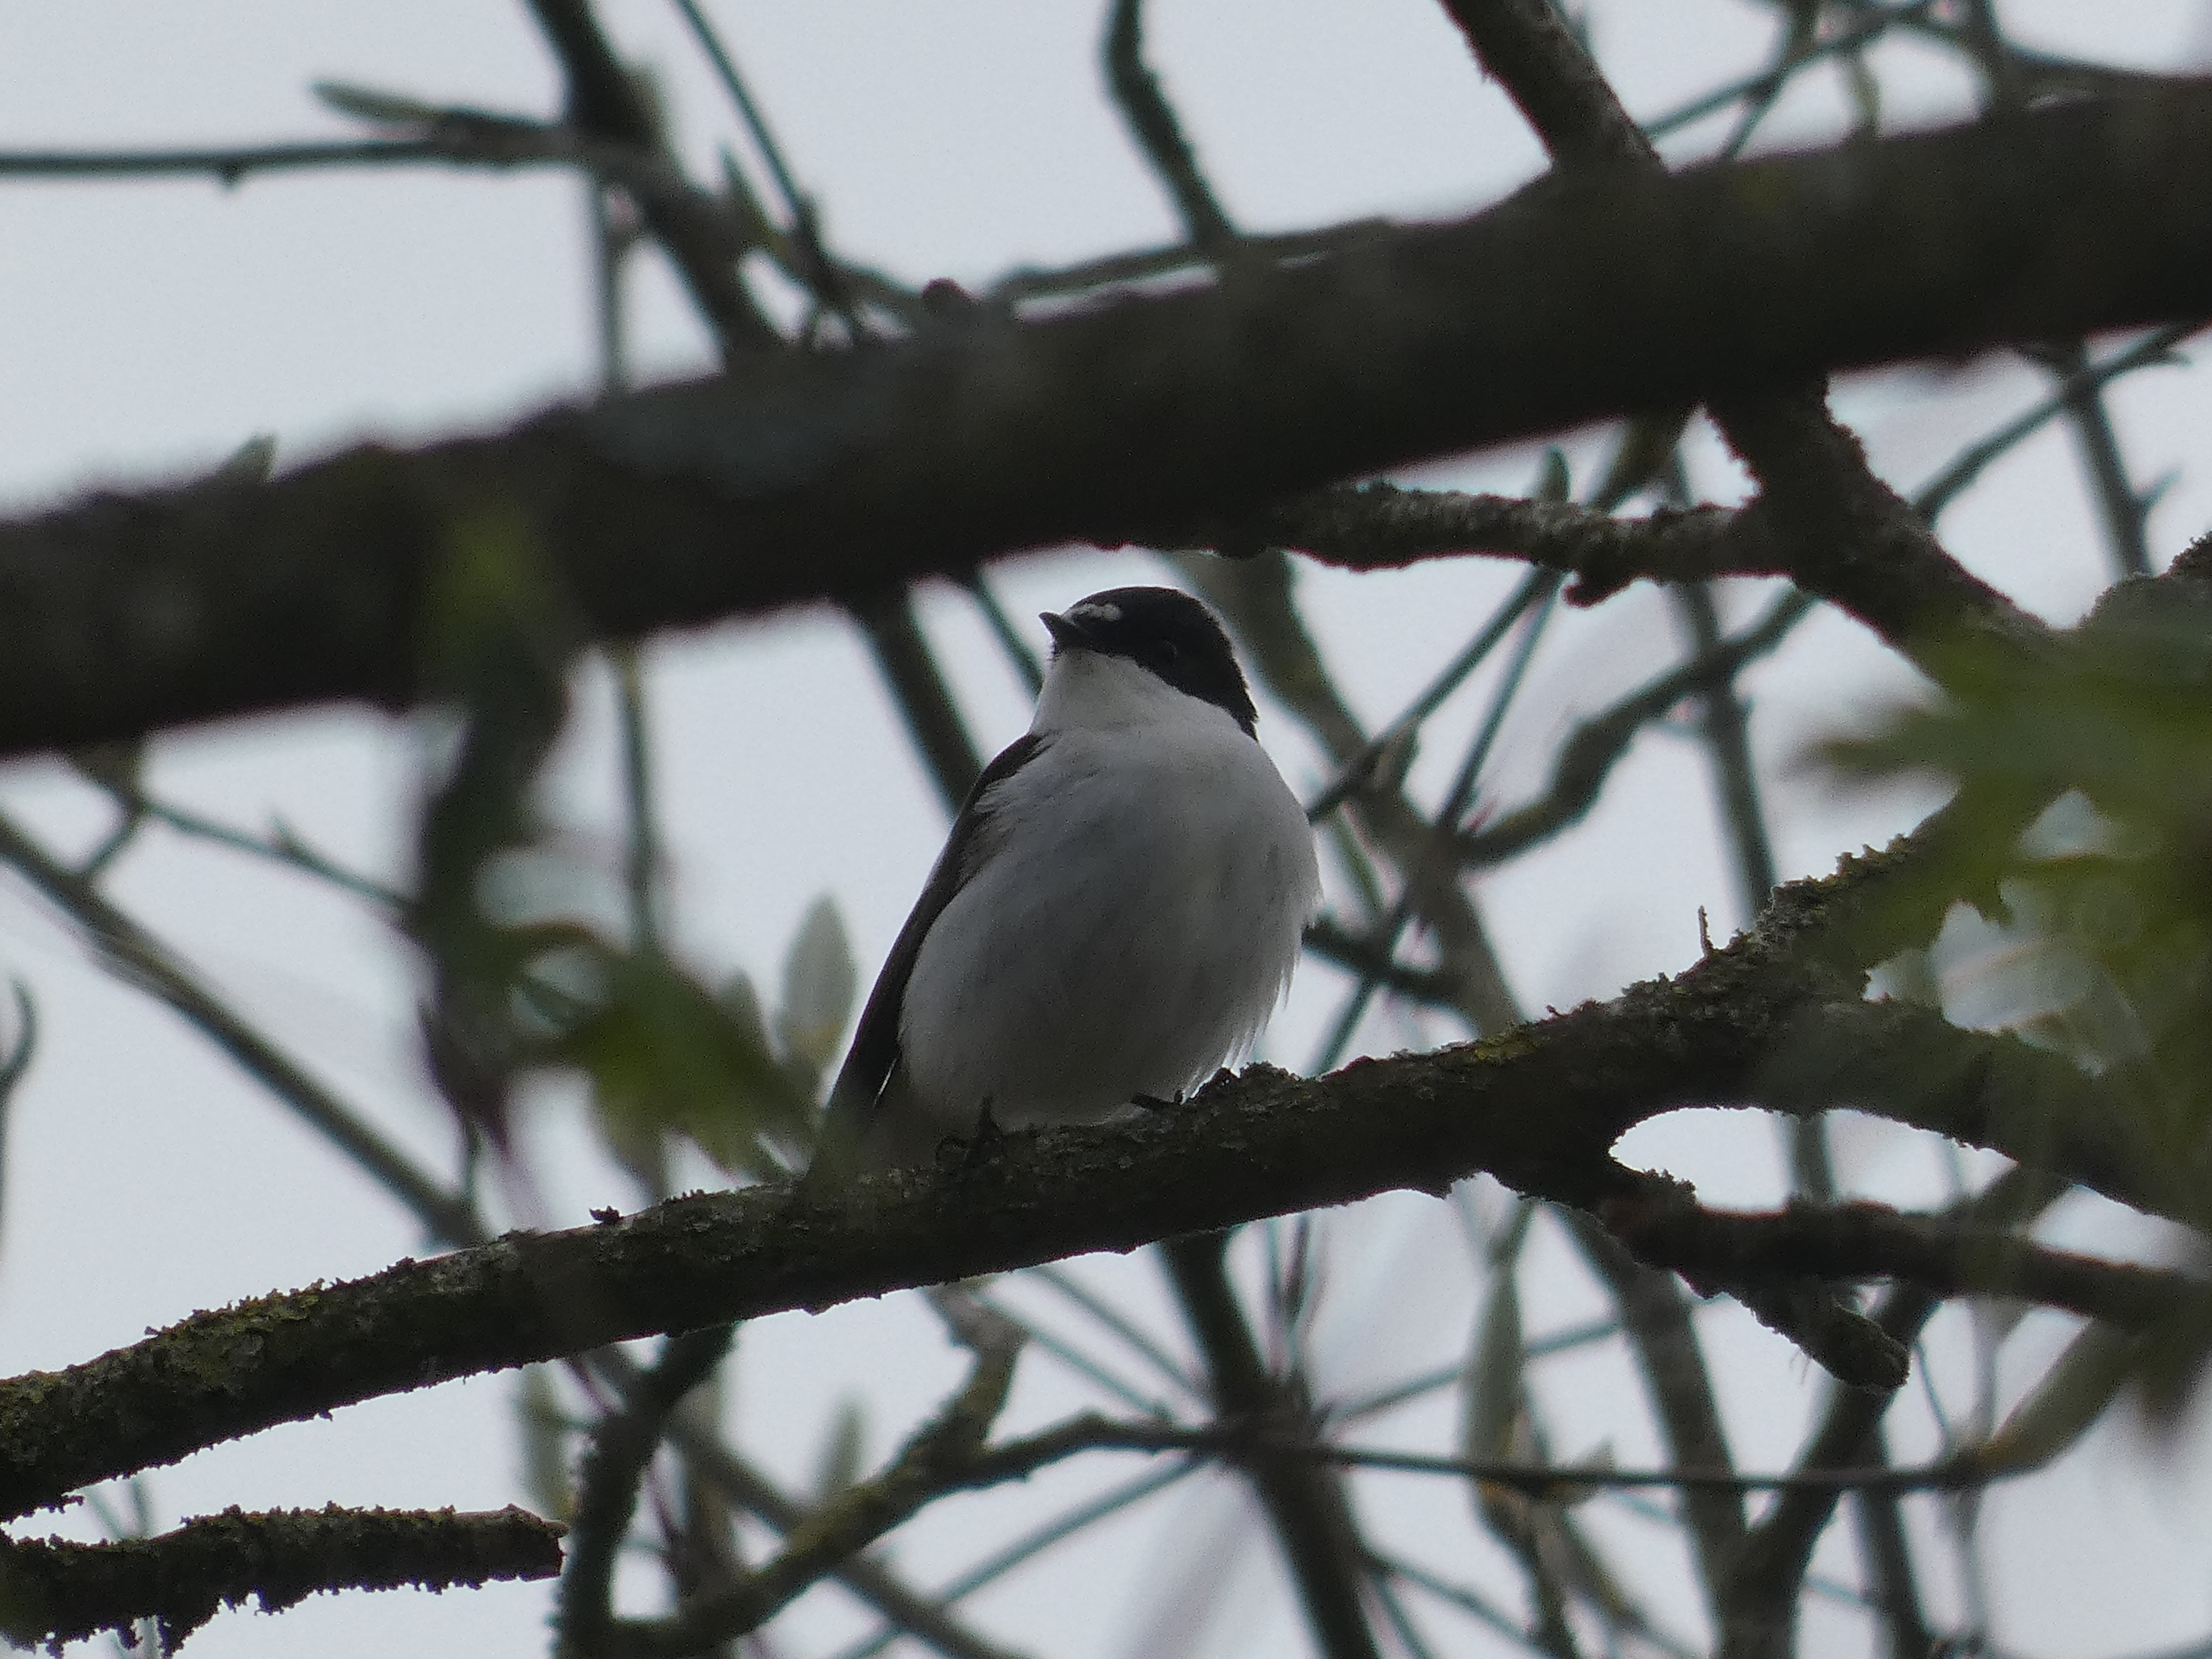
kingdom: Animalia
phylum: Chordata
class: Aves
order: Passeriformes
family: Muscicapidae
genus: Ficedula
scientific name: Ficedula hypoleuca
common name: Broget fluesnapper
